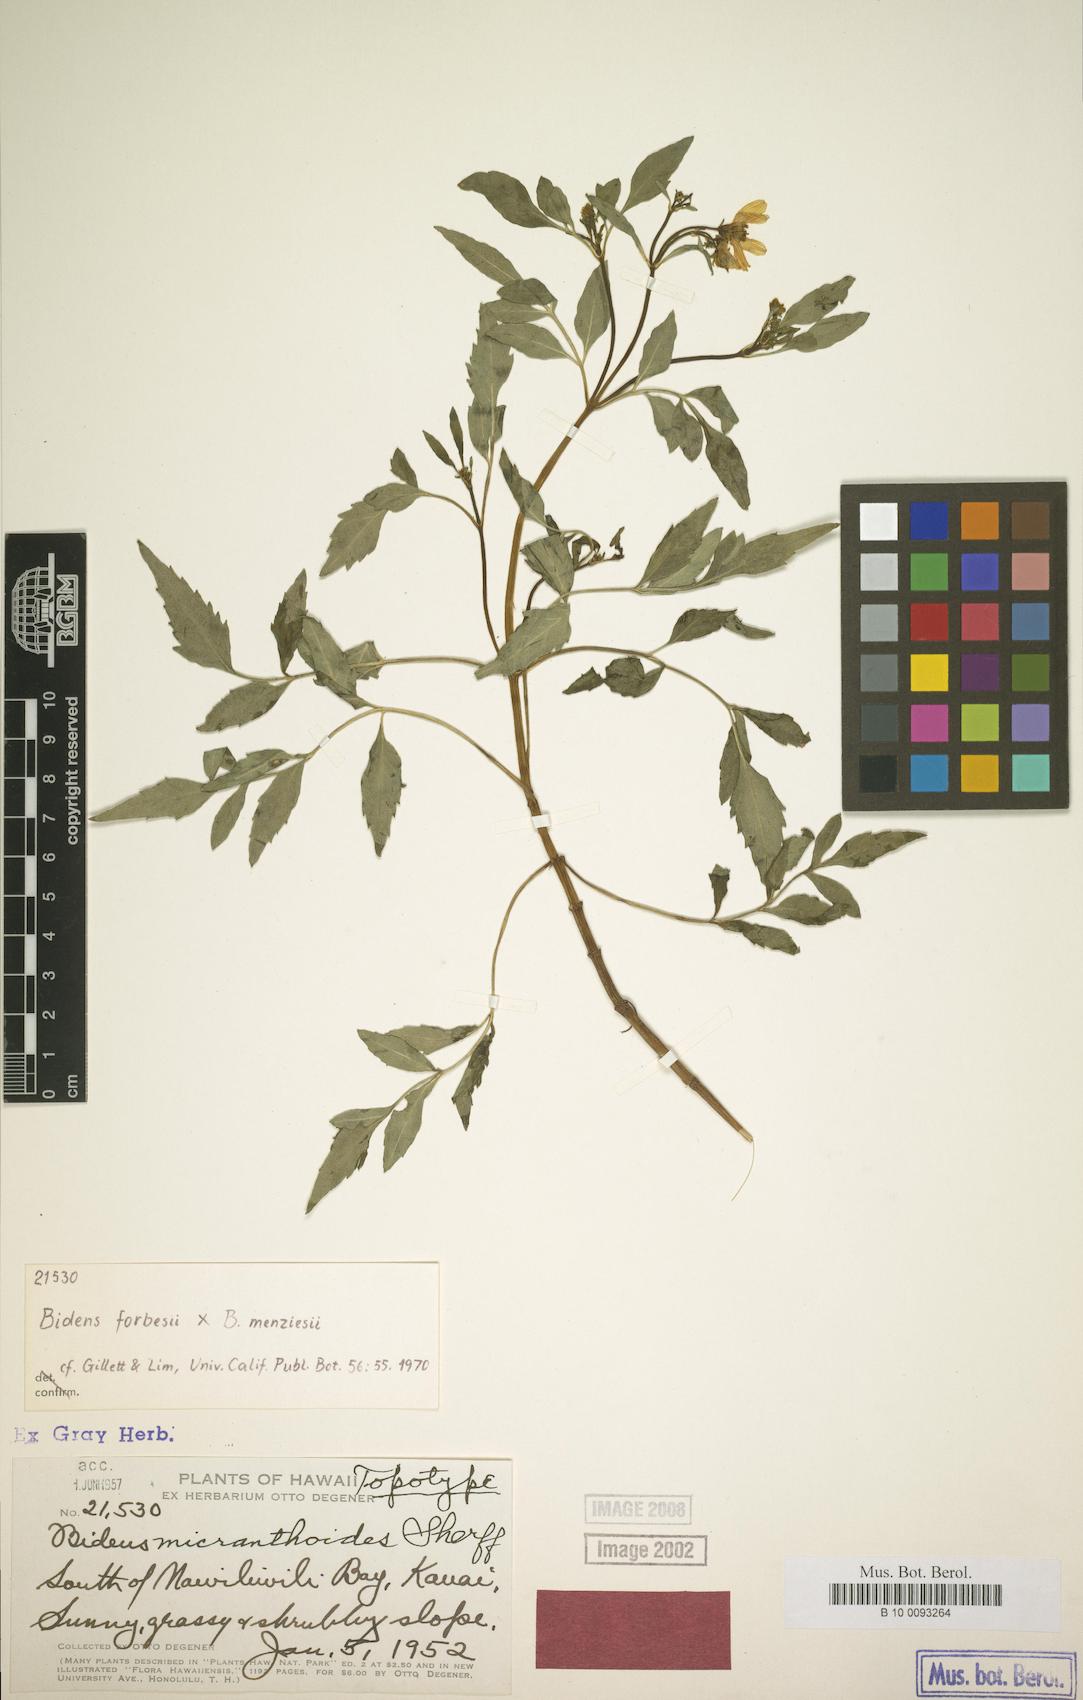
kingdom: Plantae
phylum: Tracheophyta
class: Magnoliopsida
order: Asterales
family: Asteraceae
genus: Bidens
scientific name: Bidens sandvicensis
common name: Shrubland beggarticks
